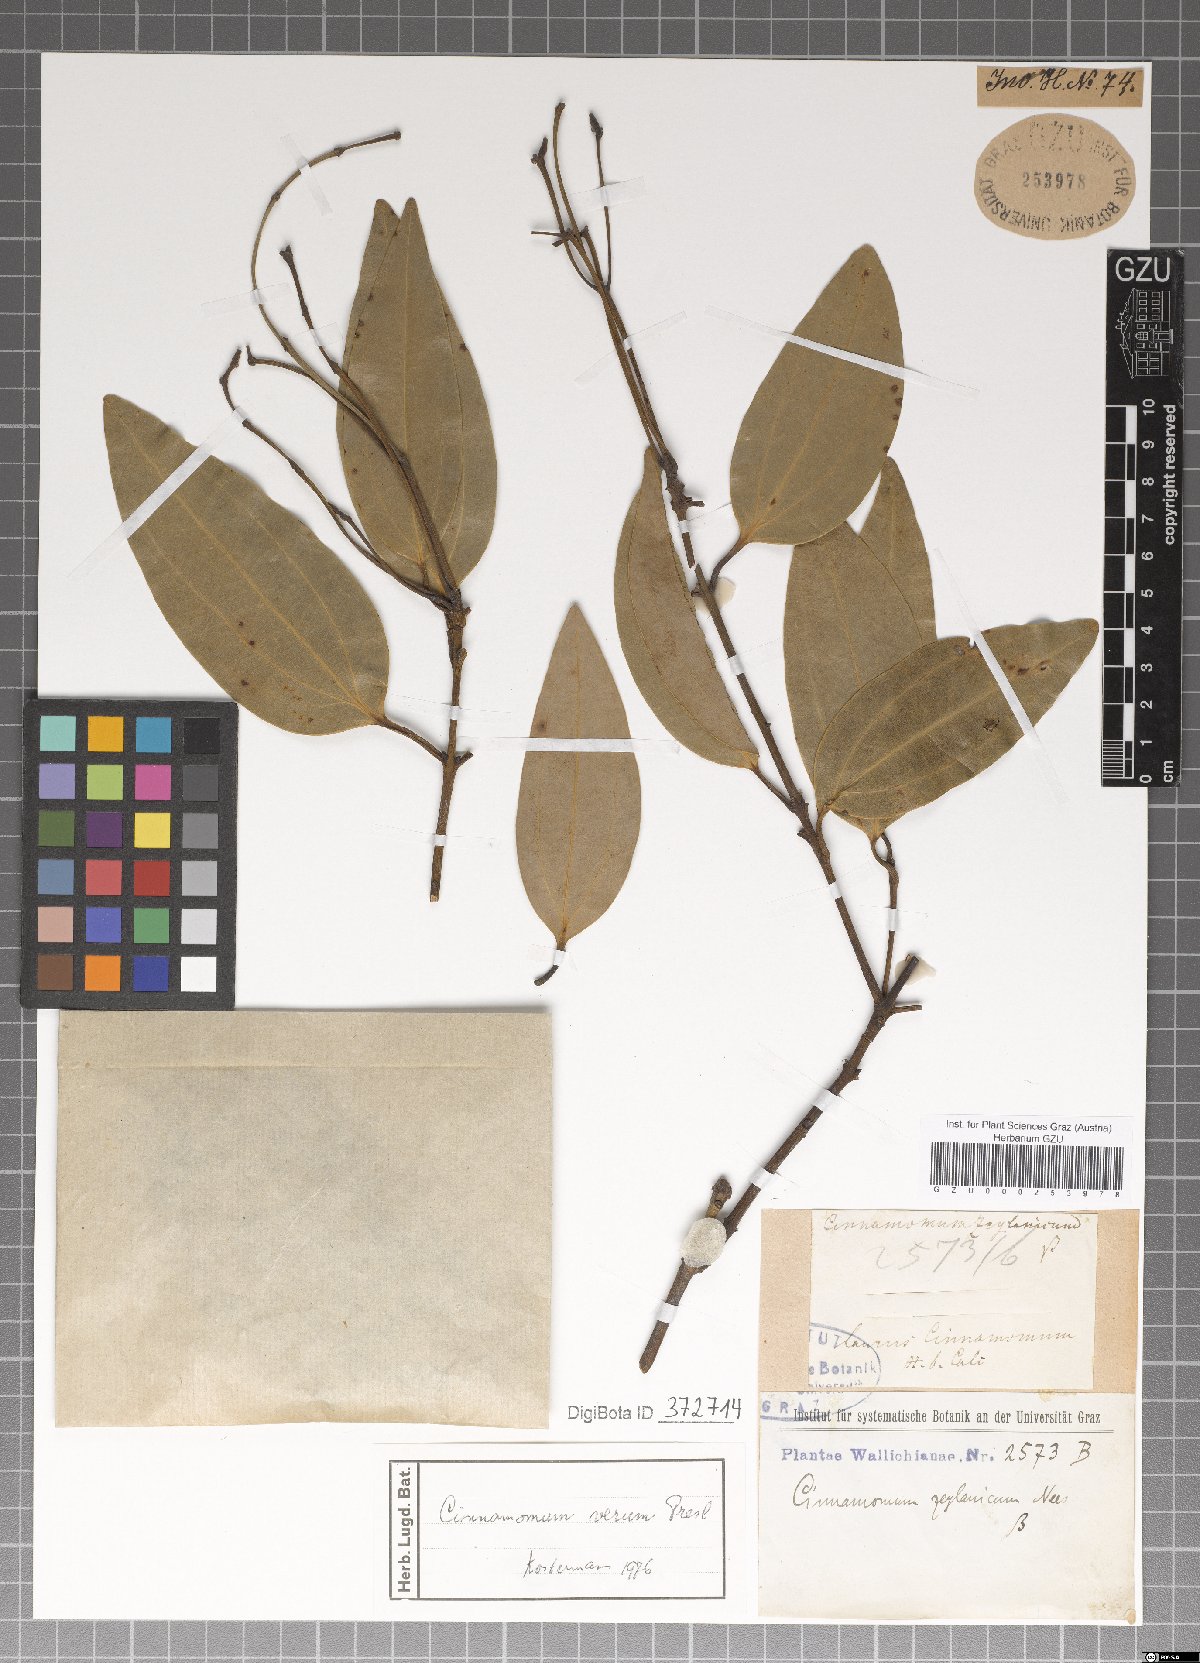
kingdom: Plantae
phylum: Tracheophyta
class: Magnoliopsida
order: Laurales
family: Lauraceae
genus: Cinnamomum
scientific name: Cinnamomum verum
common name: Cinnamon
